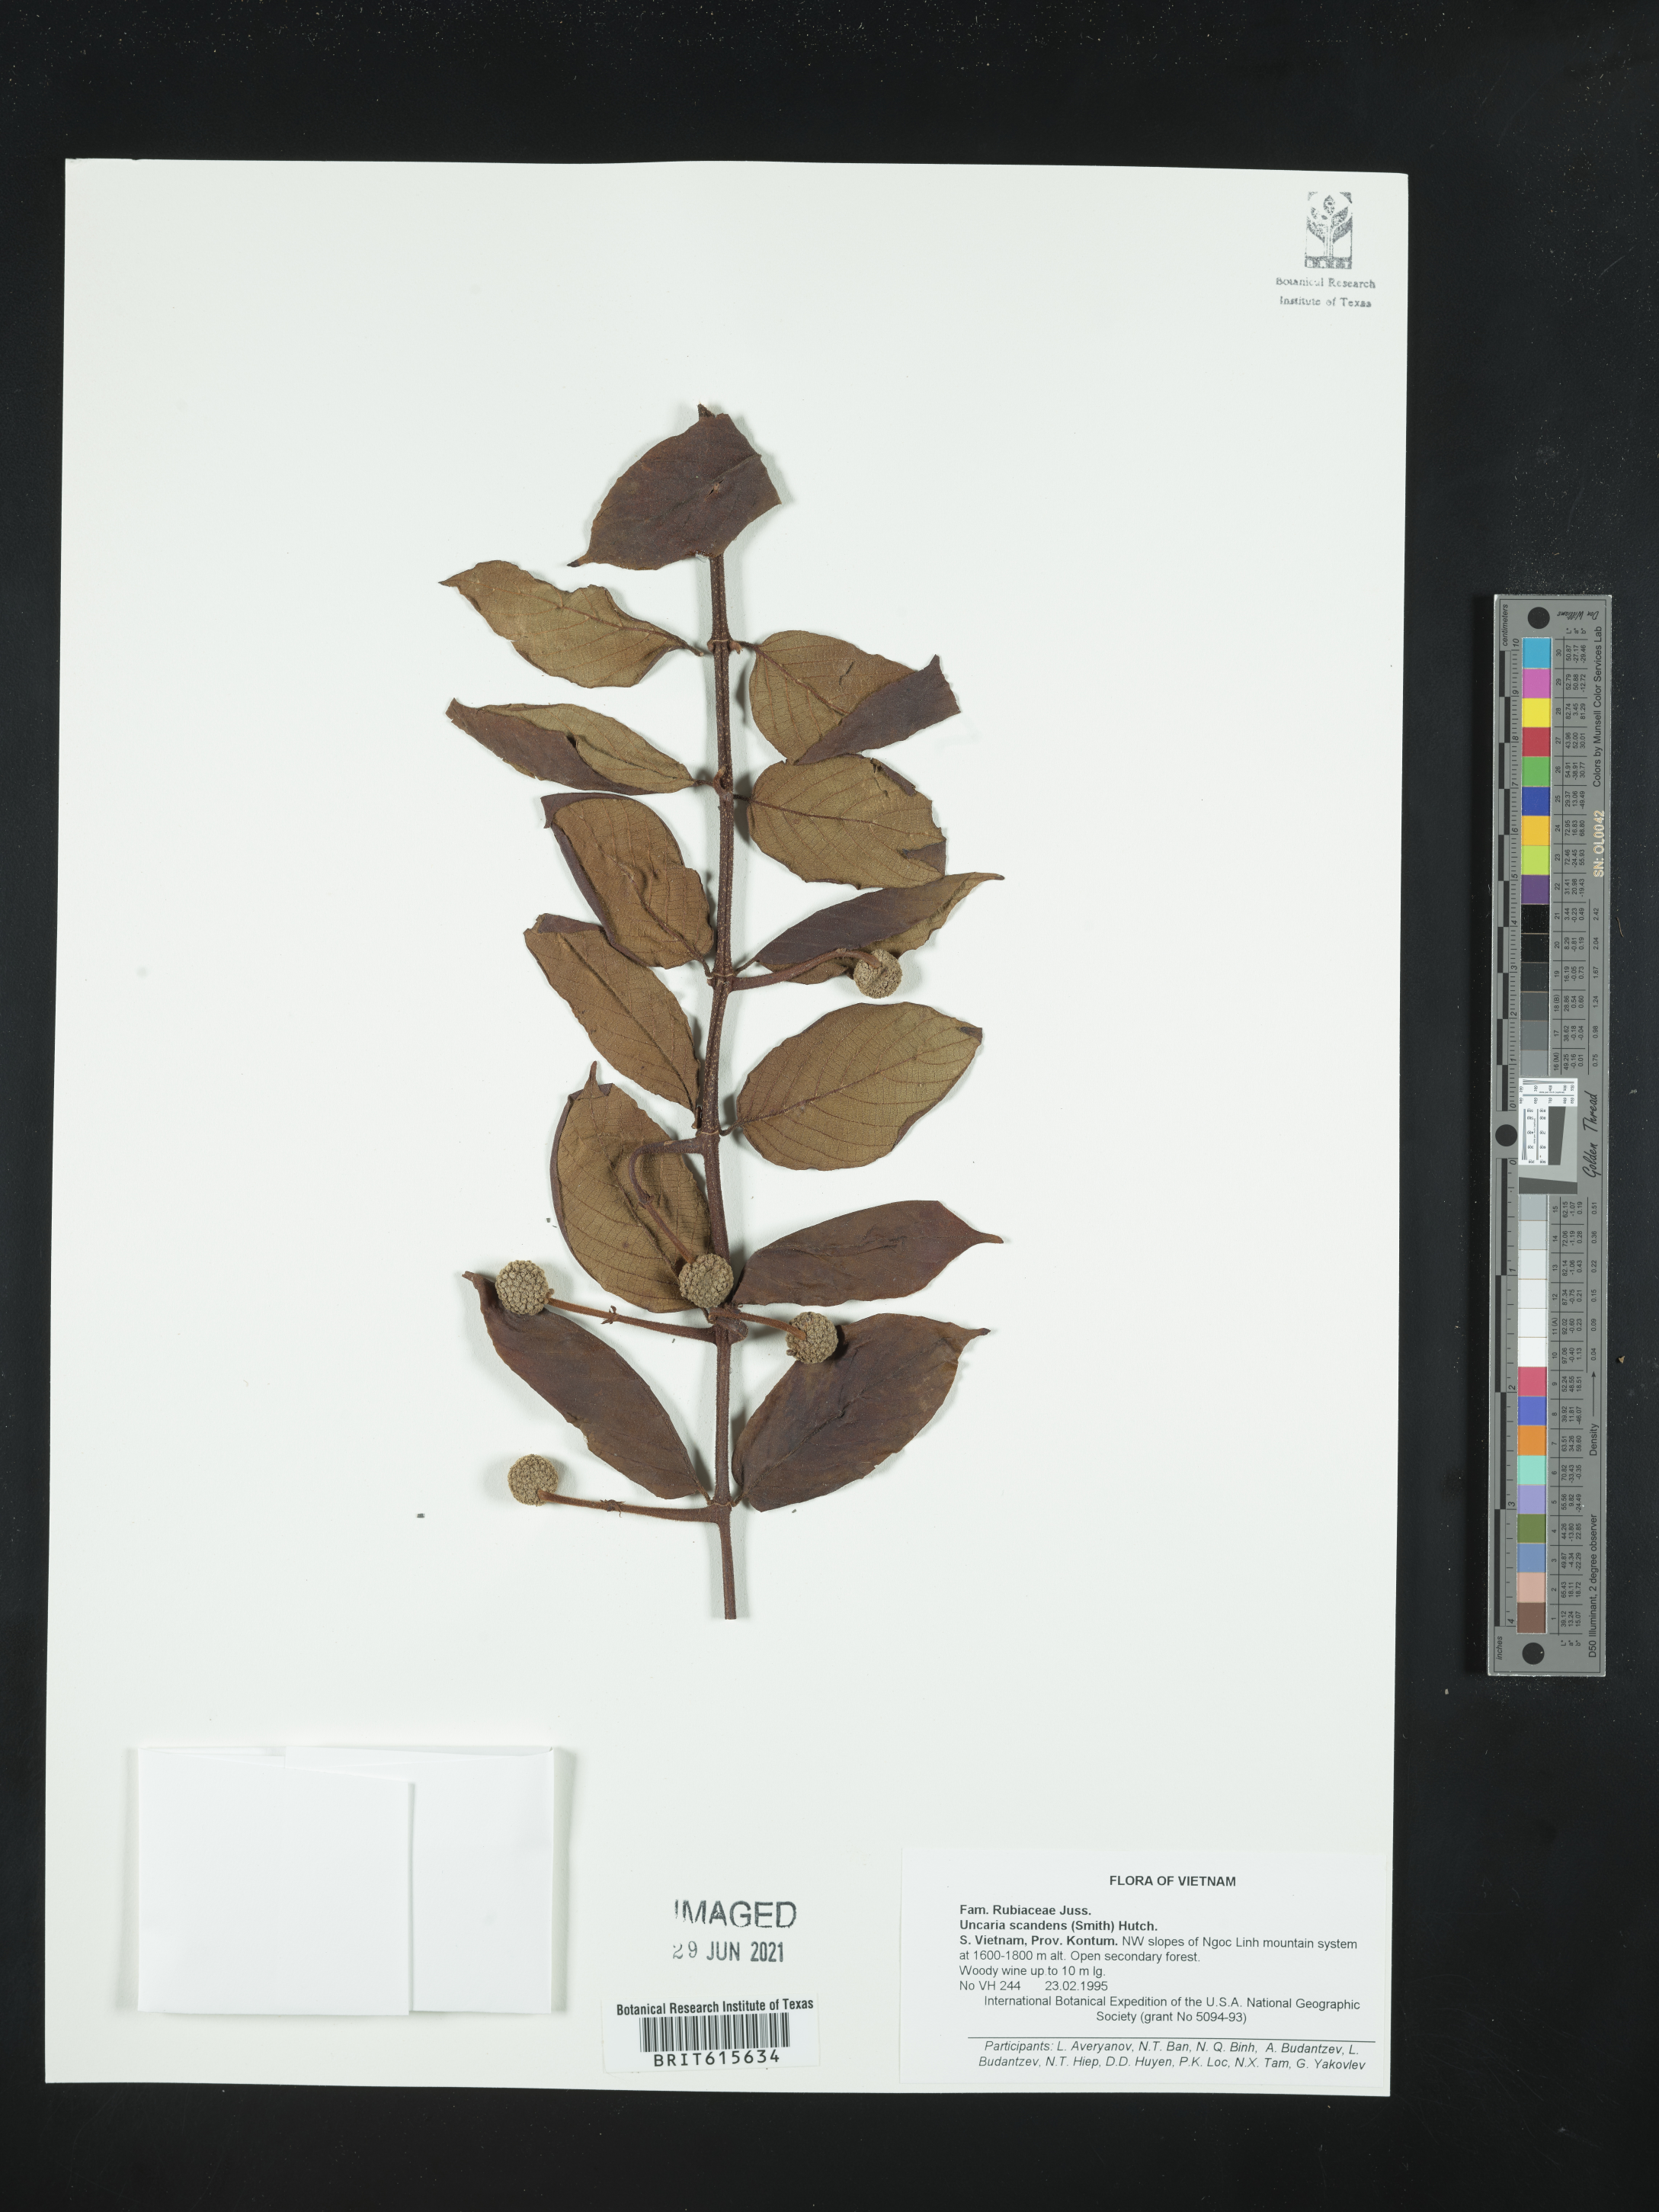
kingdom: Plantae
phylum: Tracheophyta
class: Magnoliopsida
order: Gentianales
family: Rubiaceae
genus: Uncaria
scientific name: Uncaria scandens
